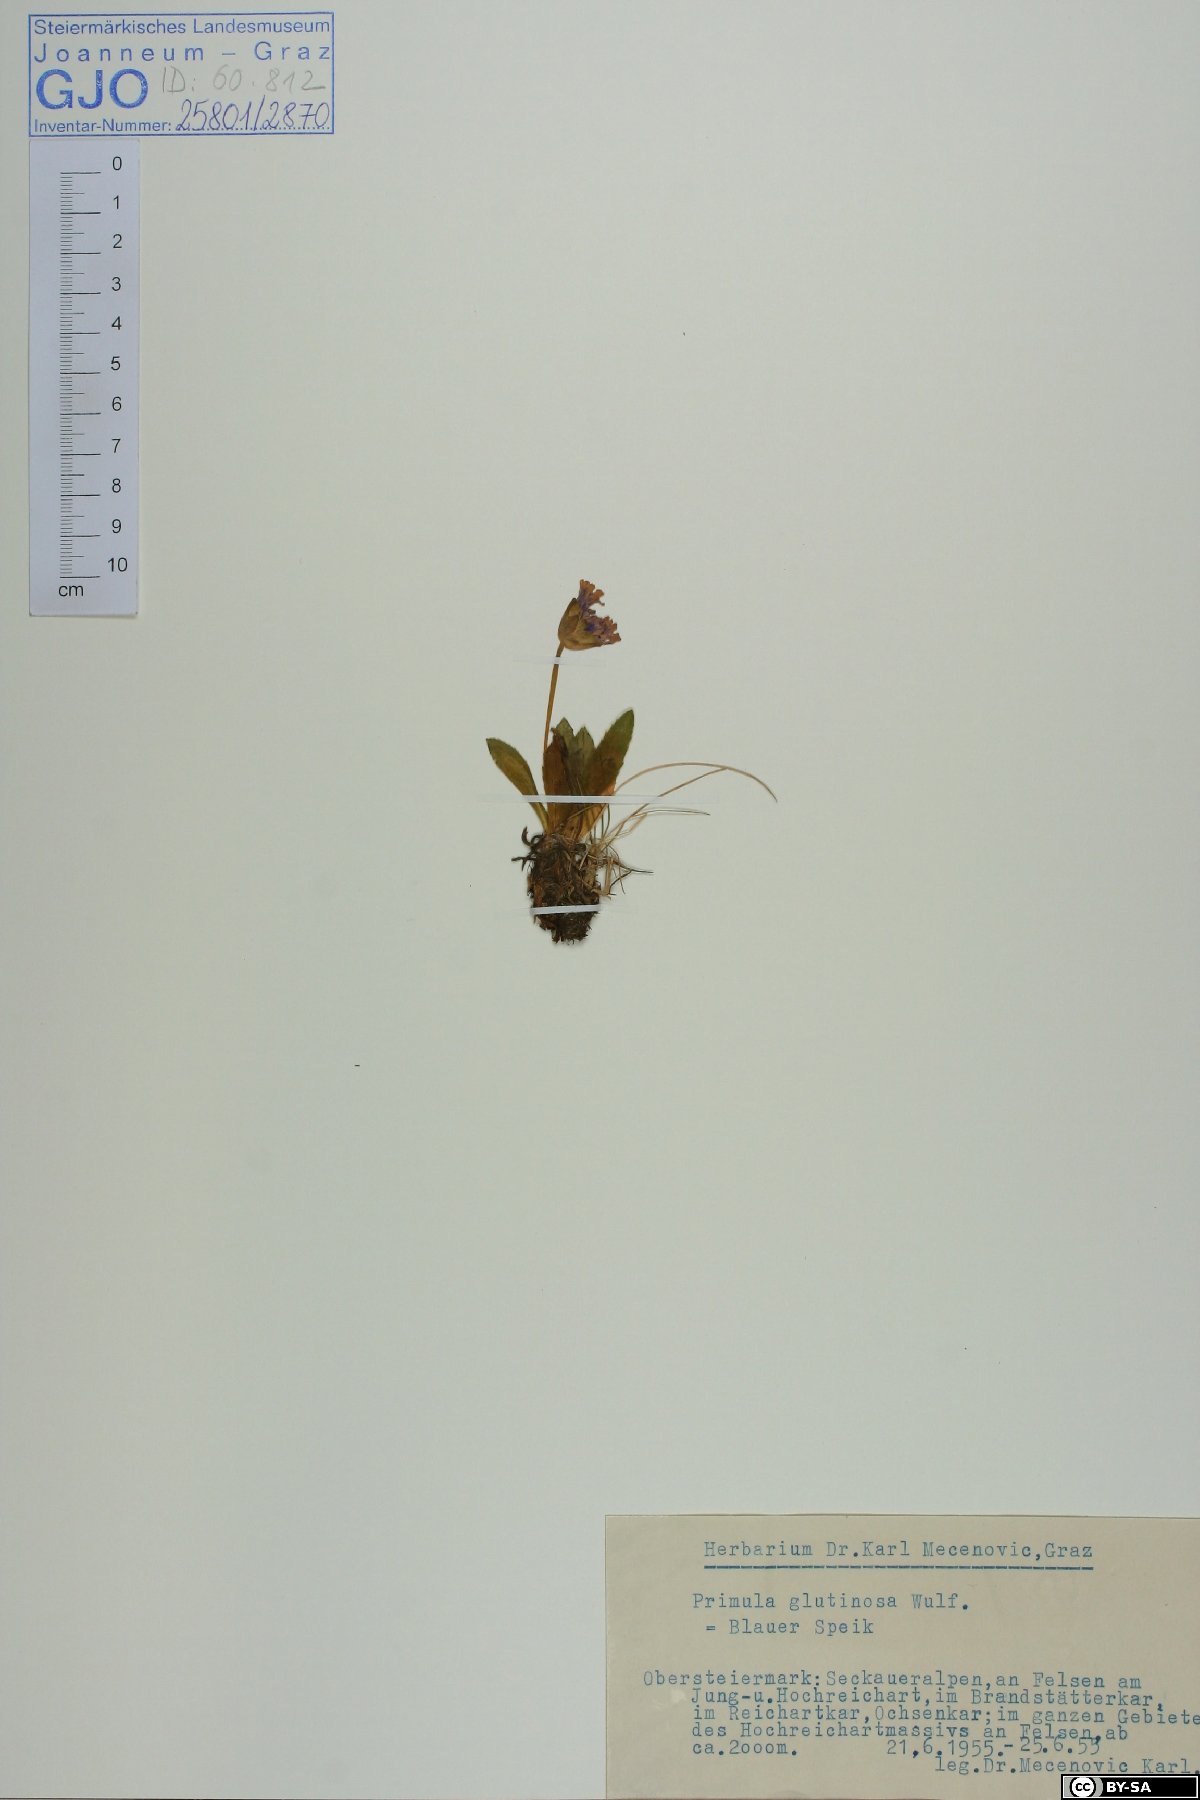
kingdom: Plantae
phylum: Tracheophyta
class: Magnoliopsida
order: Ericales
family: Primulaceae
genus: Primula
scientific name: Primula glutinosa
